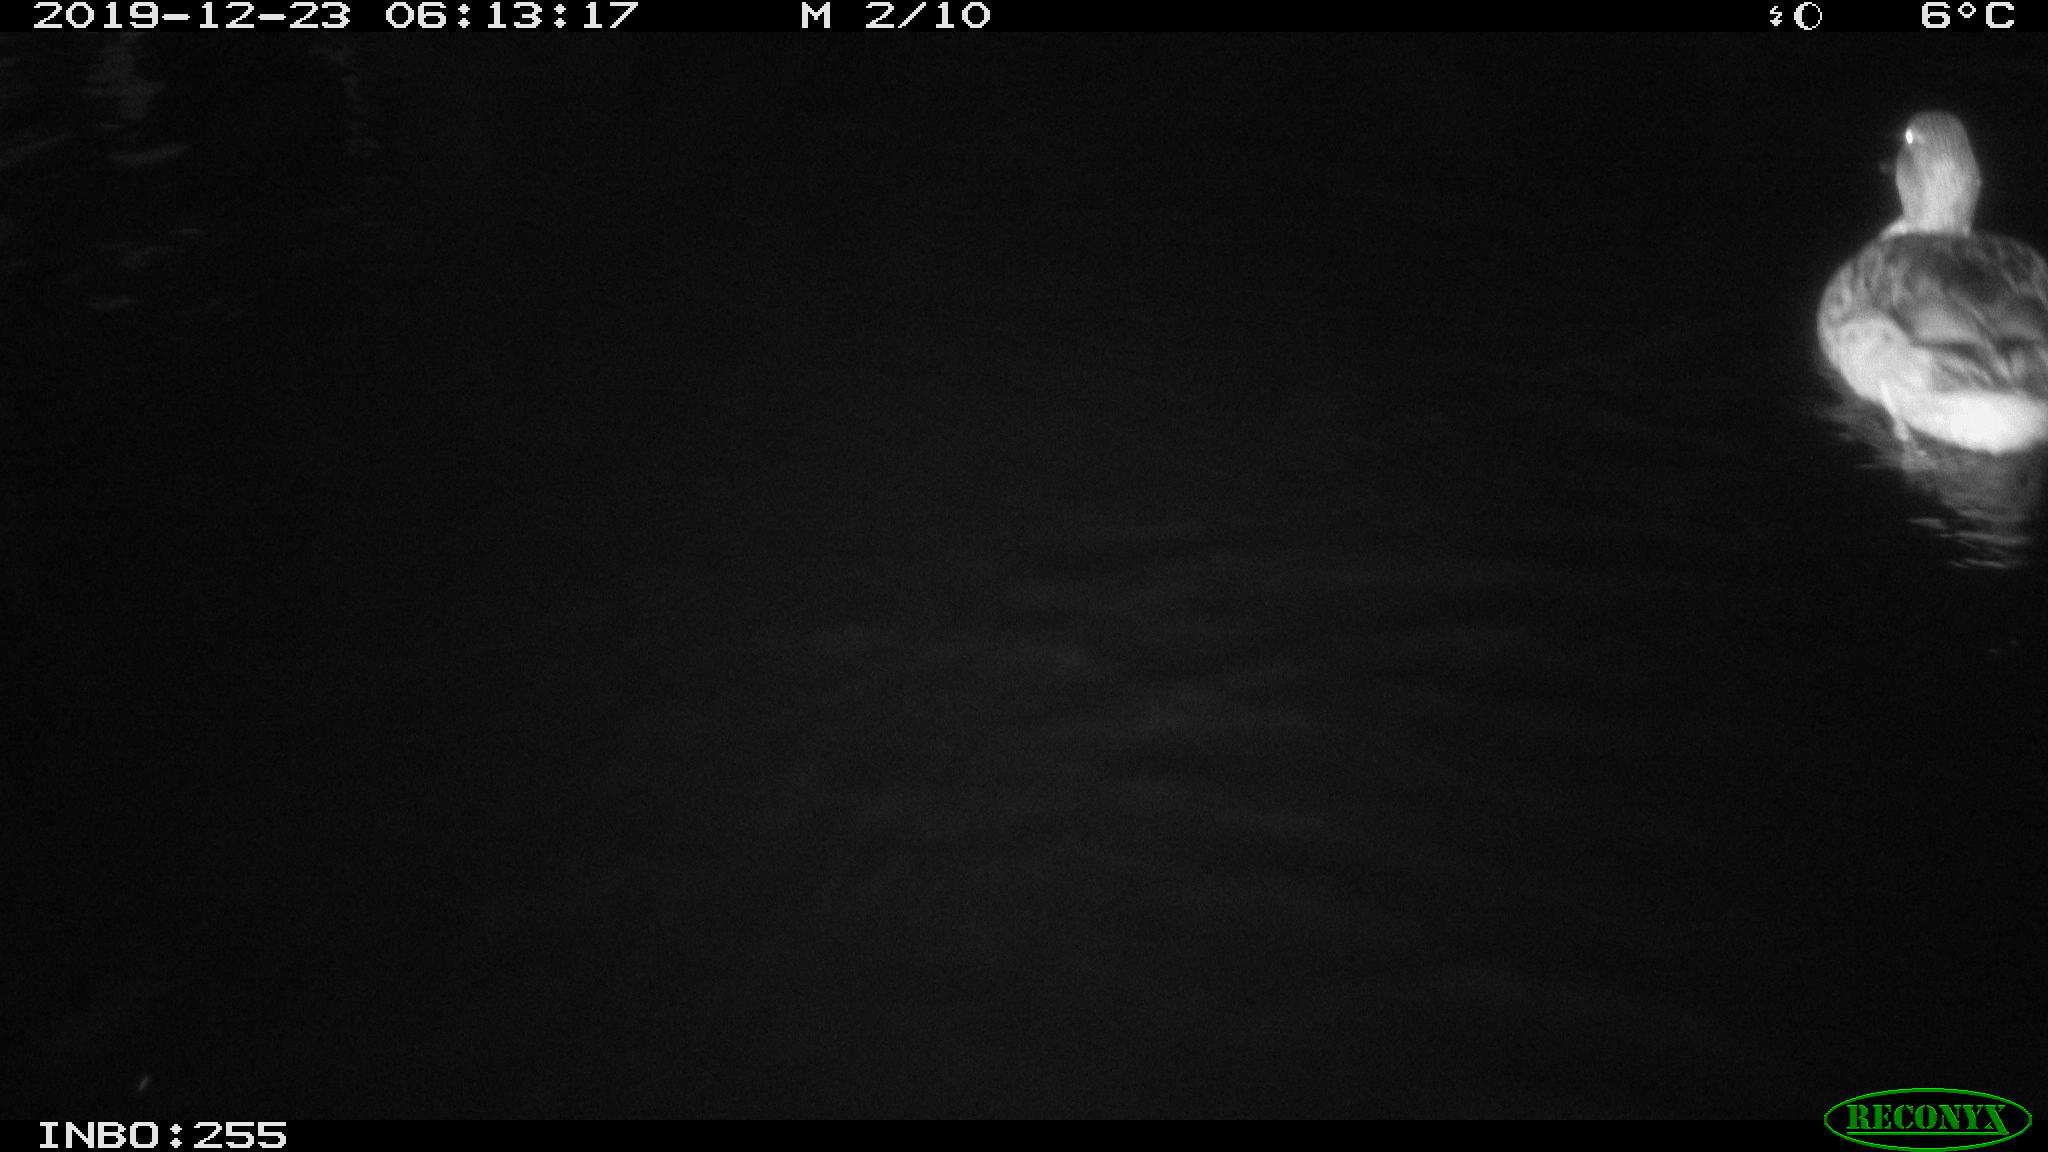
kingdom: Animalia
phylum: Chordata
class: Aves
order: Anseriformes
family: Anatidae
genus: Anas
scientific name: Anas platyrhynchos
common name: Mallard
